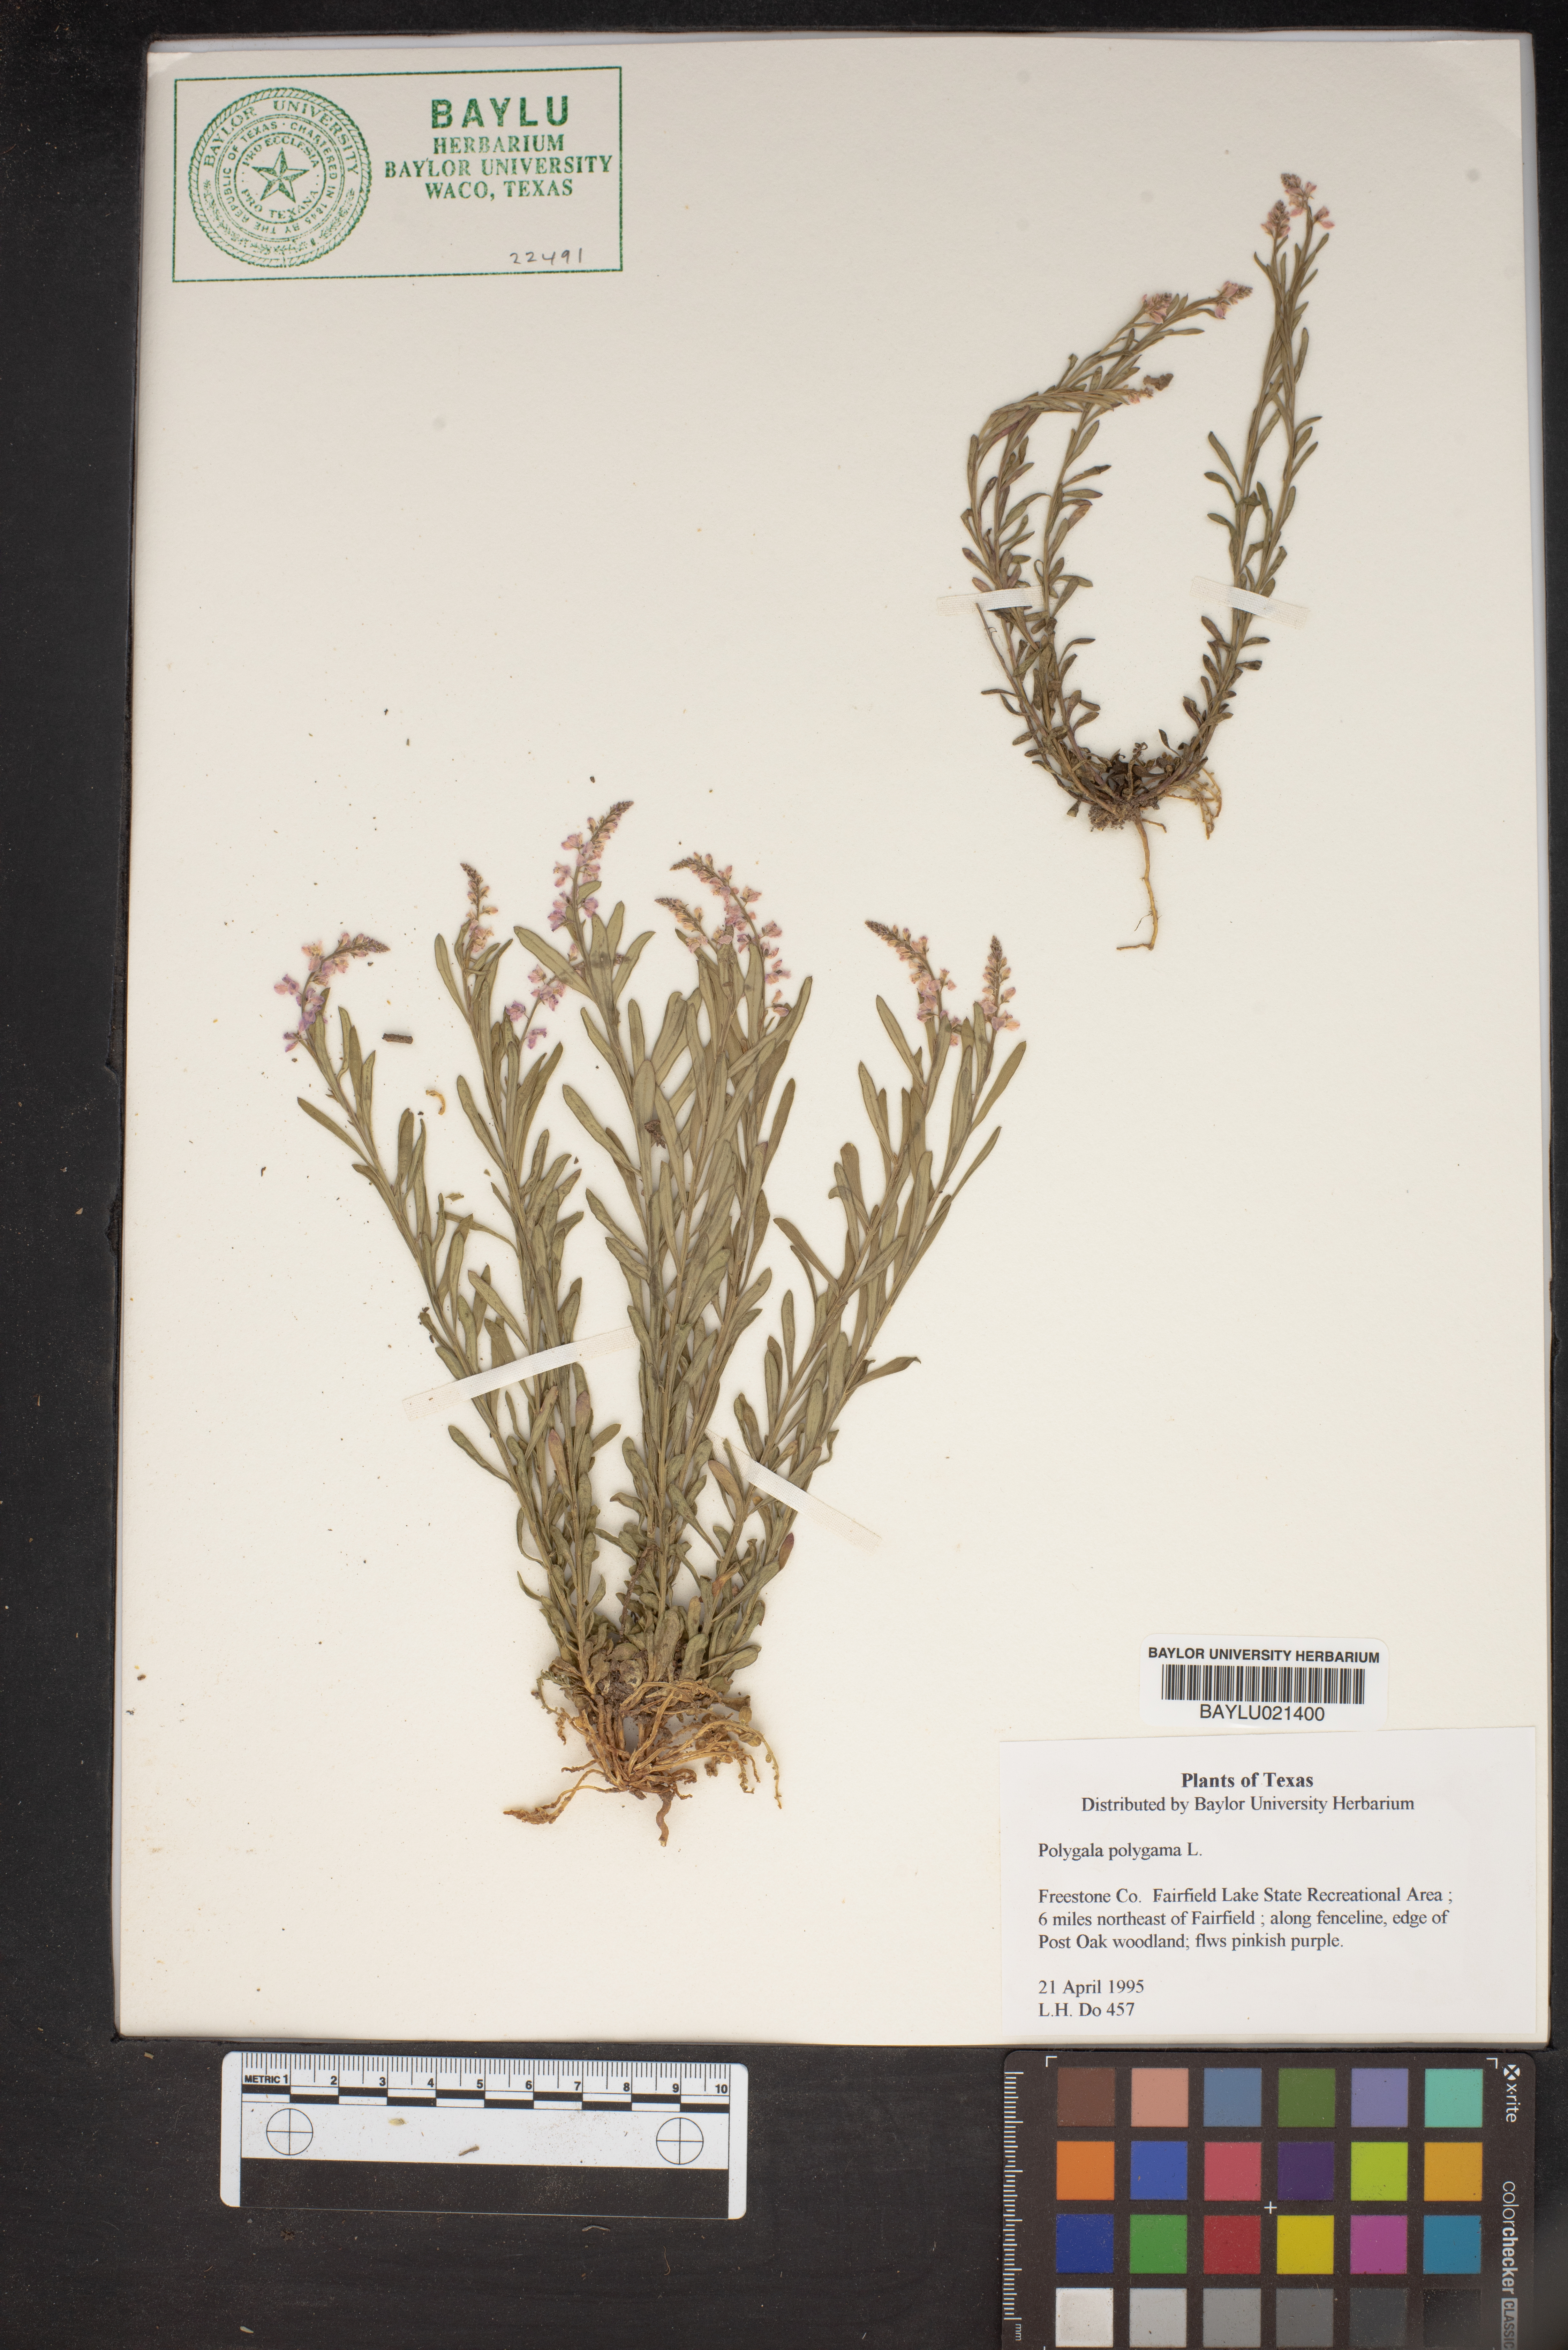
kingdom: Plantae
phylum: Tracheophyta
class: Magnoliopsida
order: Fabales
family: Polygalaceae
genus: Polygala
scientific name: Polygala polygama
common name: Bitter milkwort
